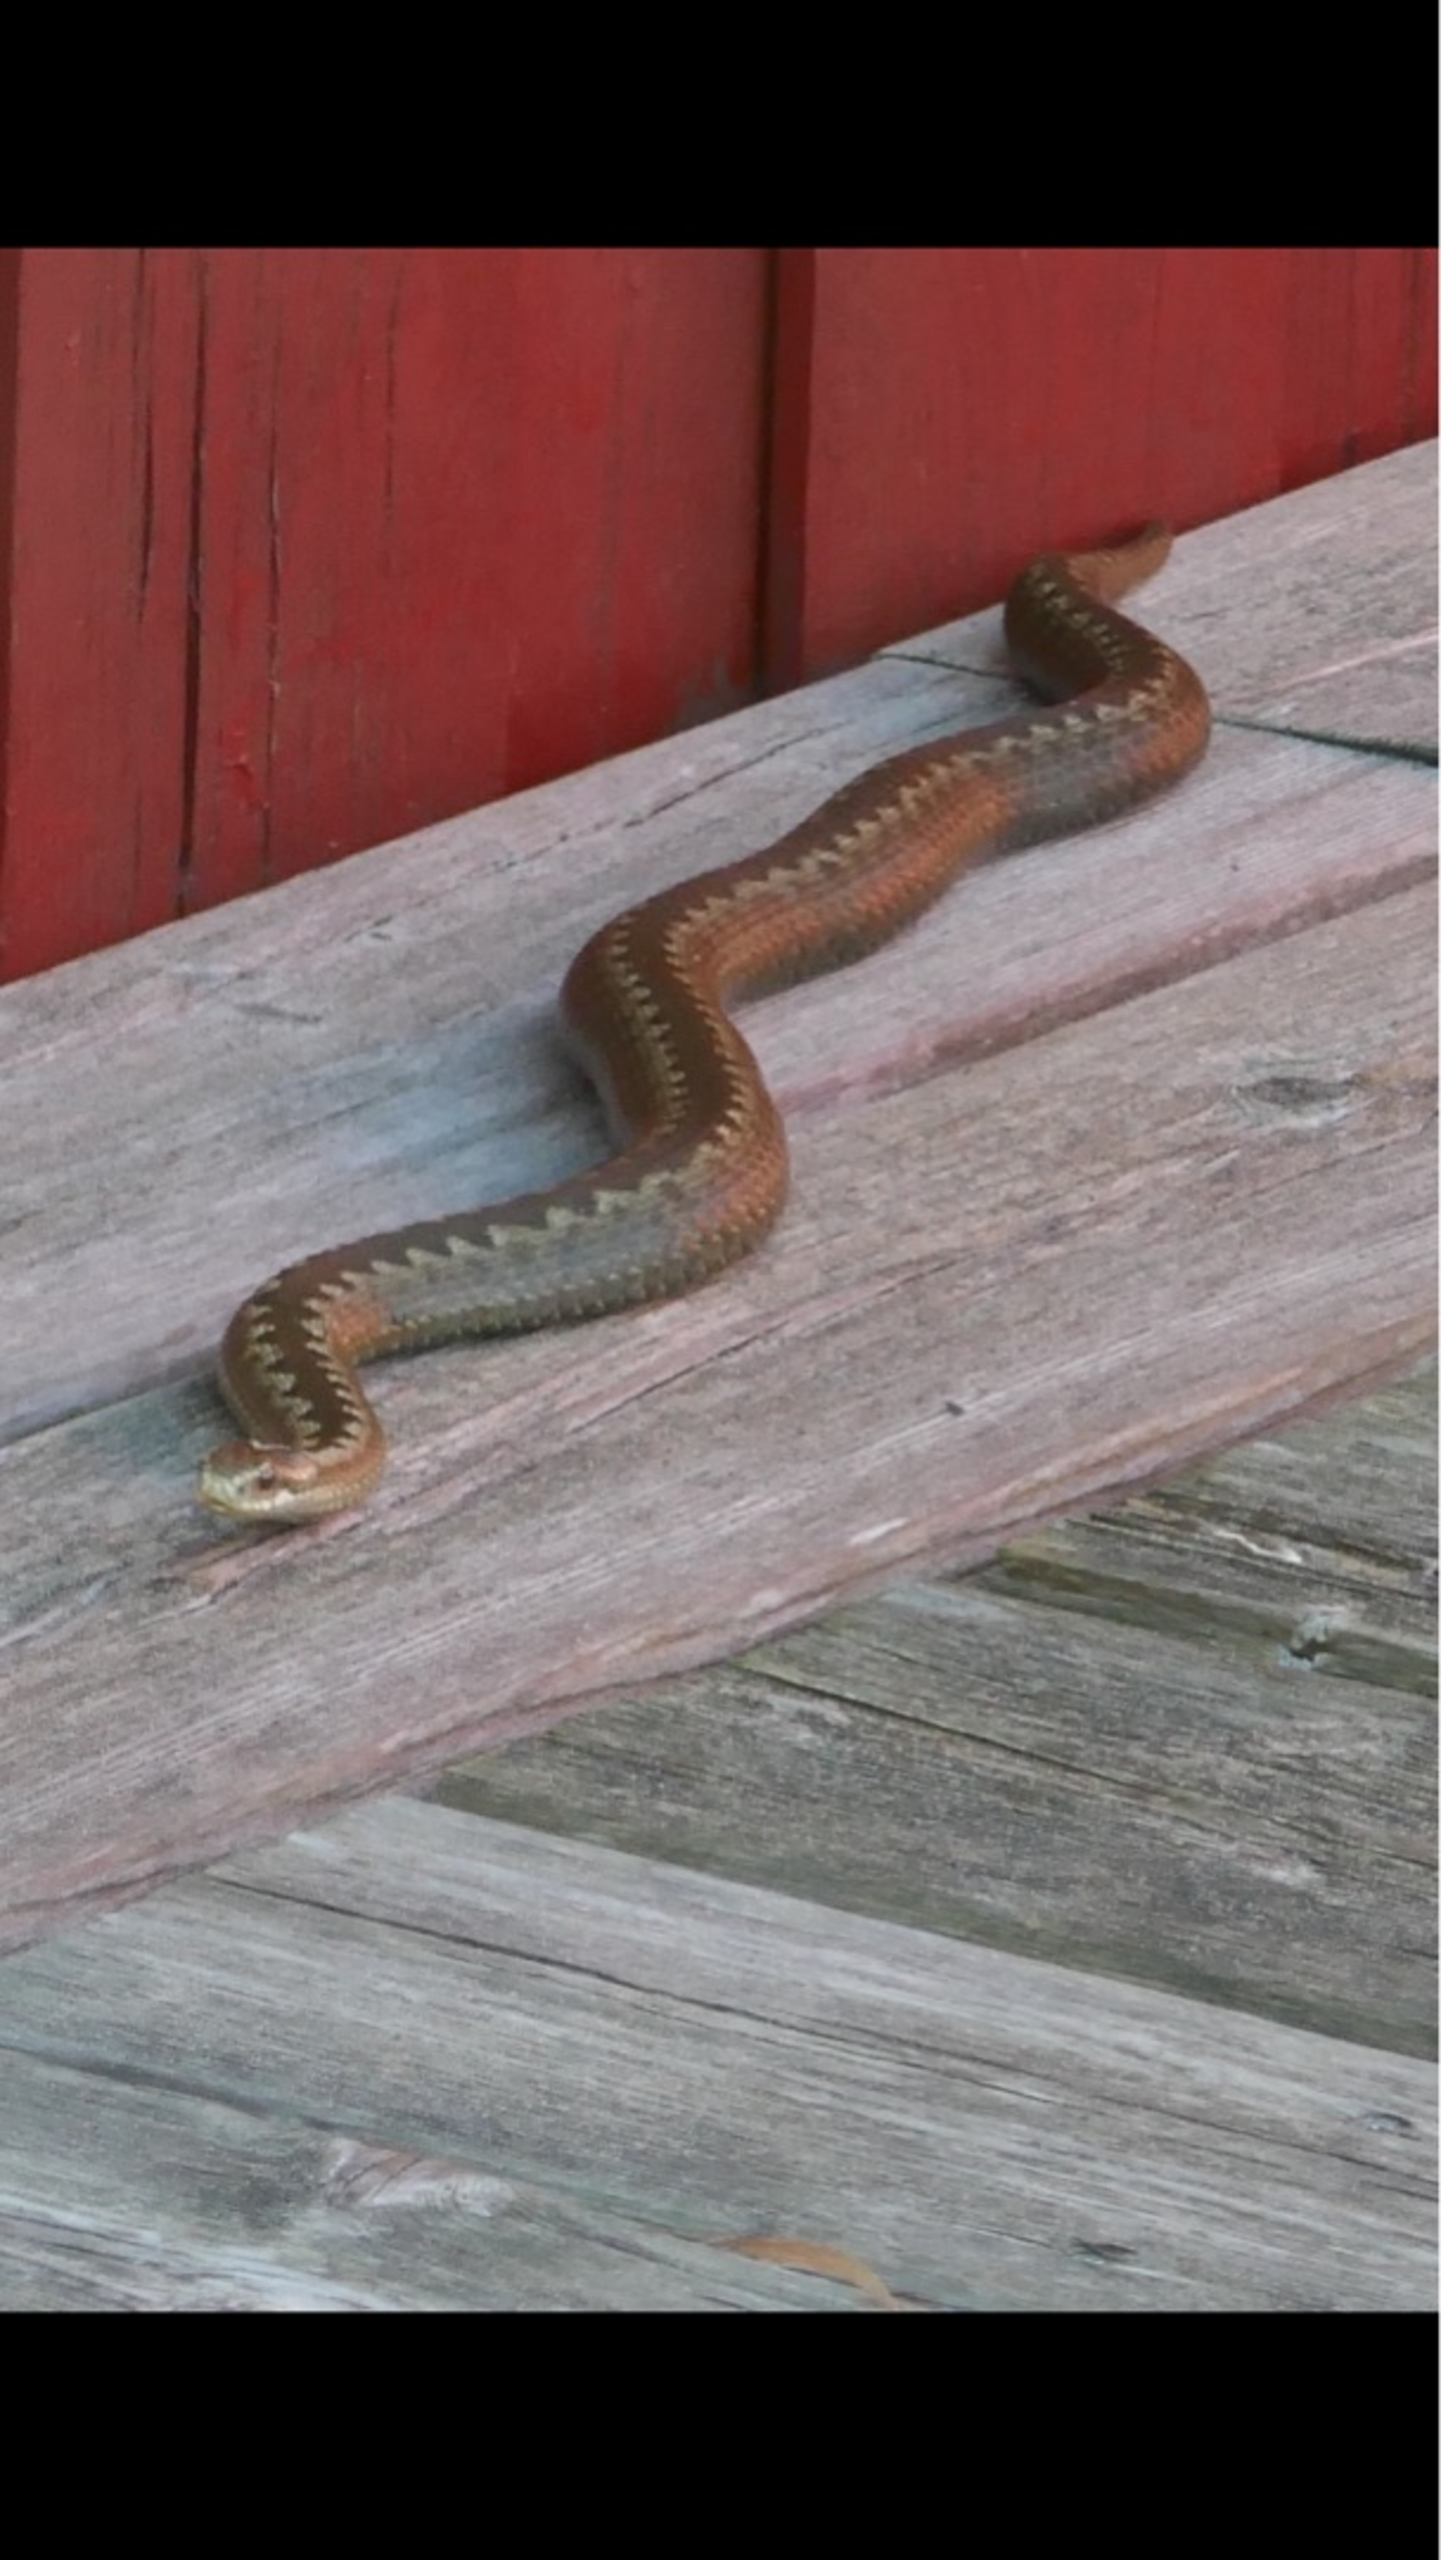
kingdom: Animalia
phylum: Chordata
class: Squamata
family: Viperidae
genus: Vipera
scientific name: Vipera berus
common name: Hugorm
